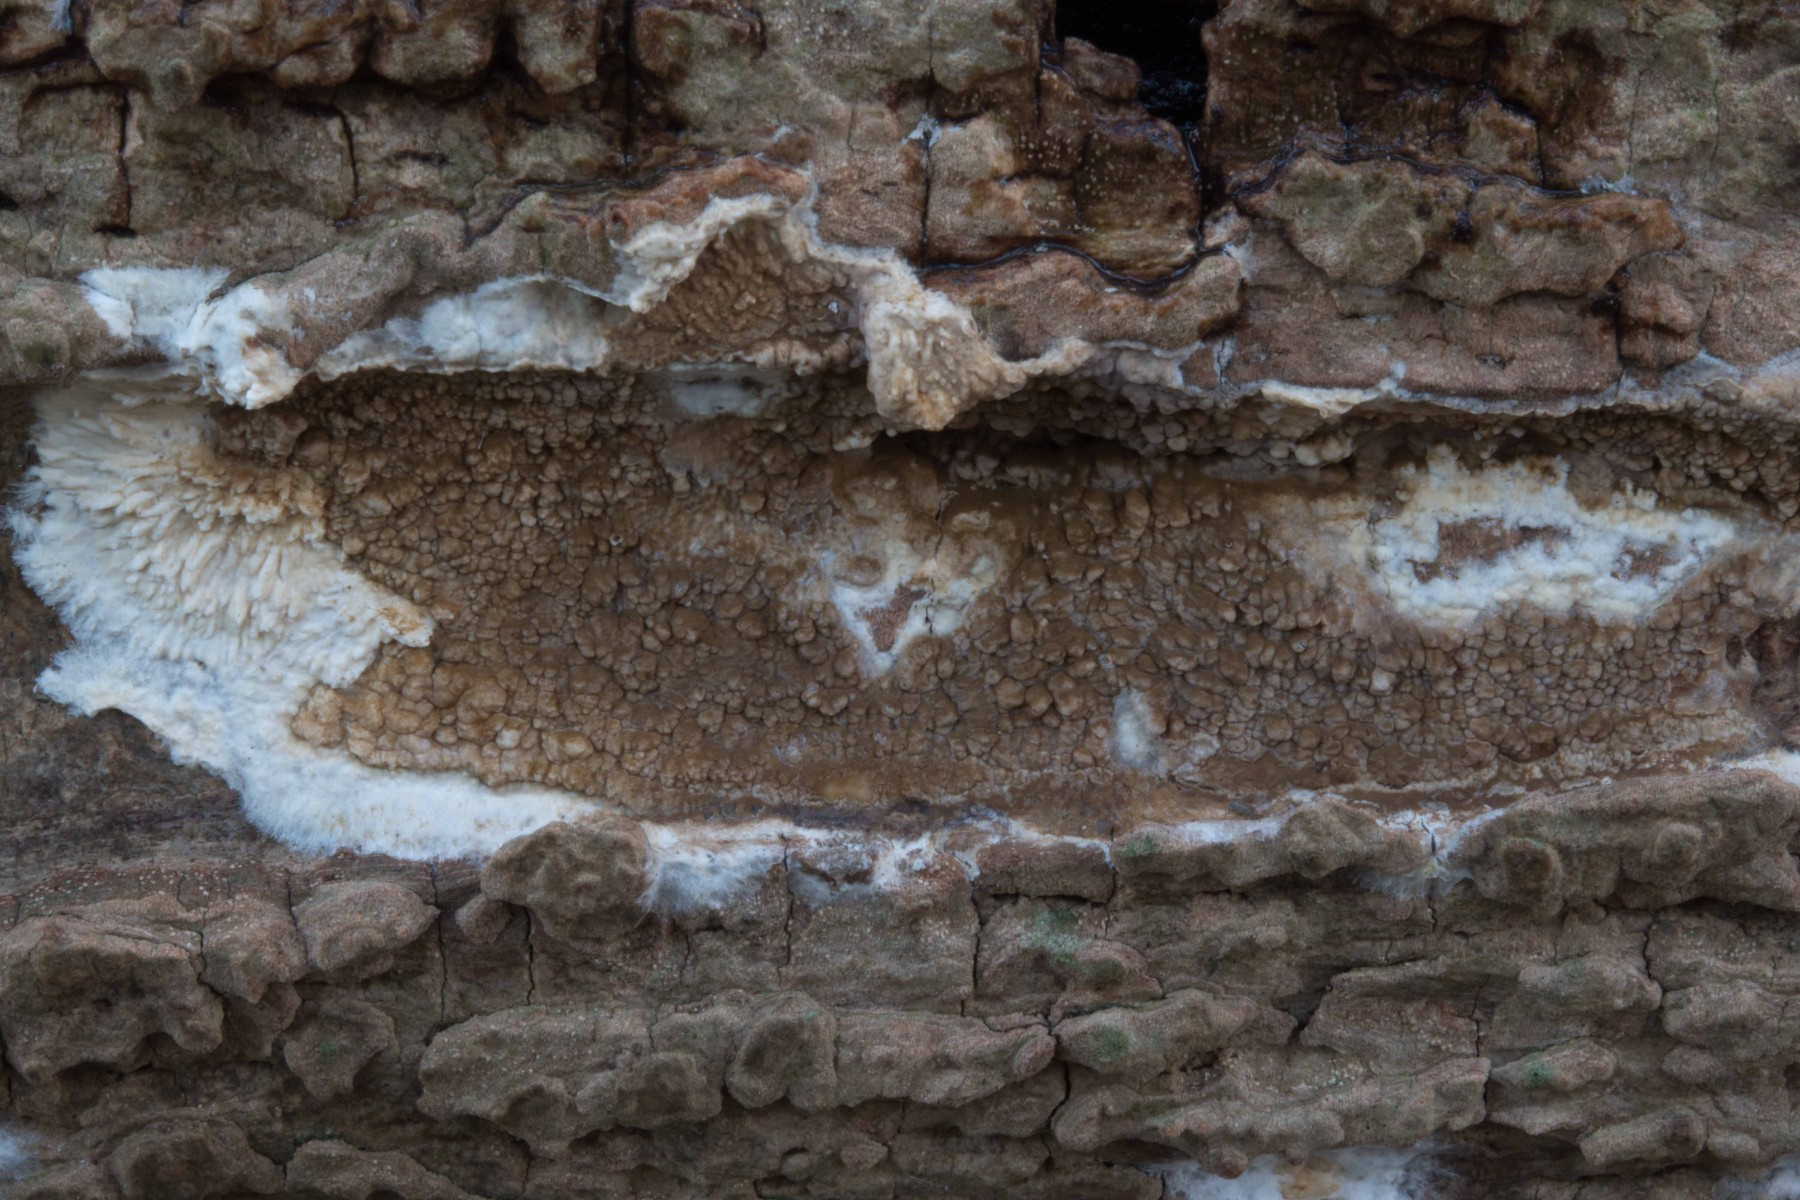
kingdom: Fungi
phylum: Basidiomycota
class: Agaricomycetes
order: Boletales
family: Coniophoraceae
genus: Coniophora
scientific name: Coniophora puteana
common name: gul tømmersvamp
